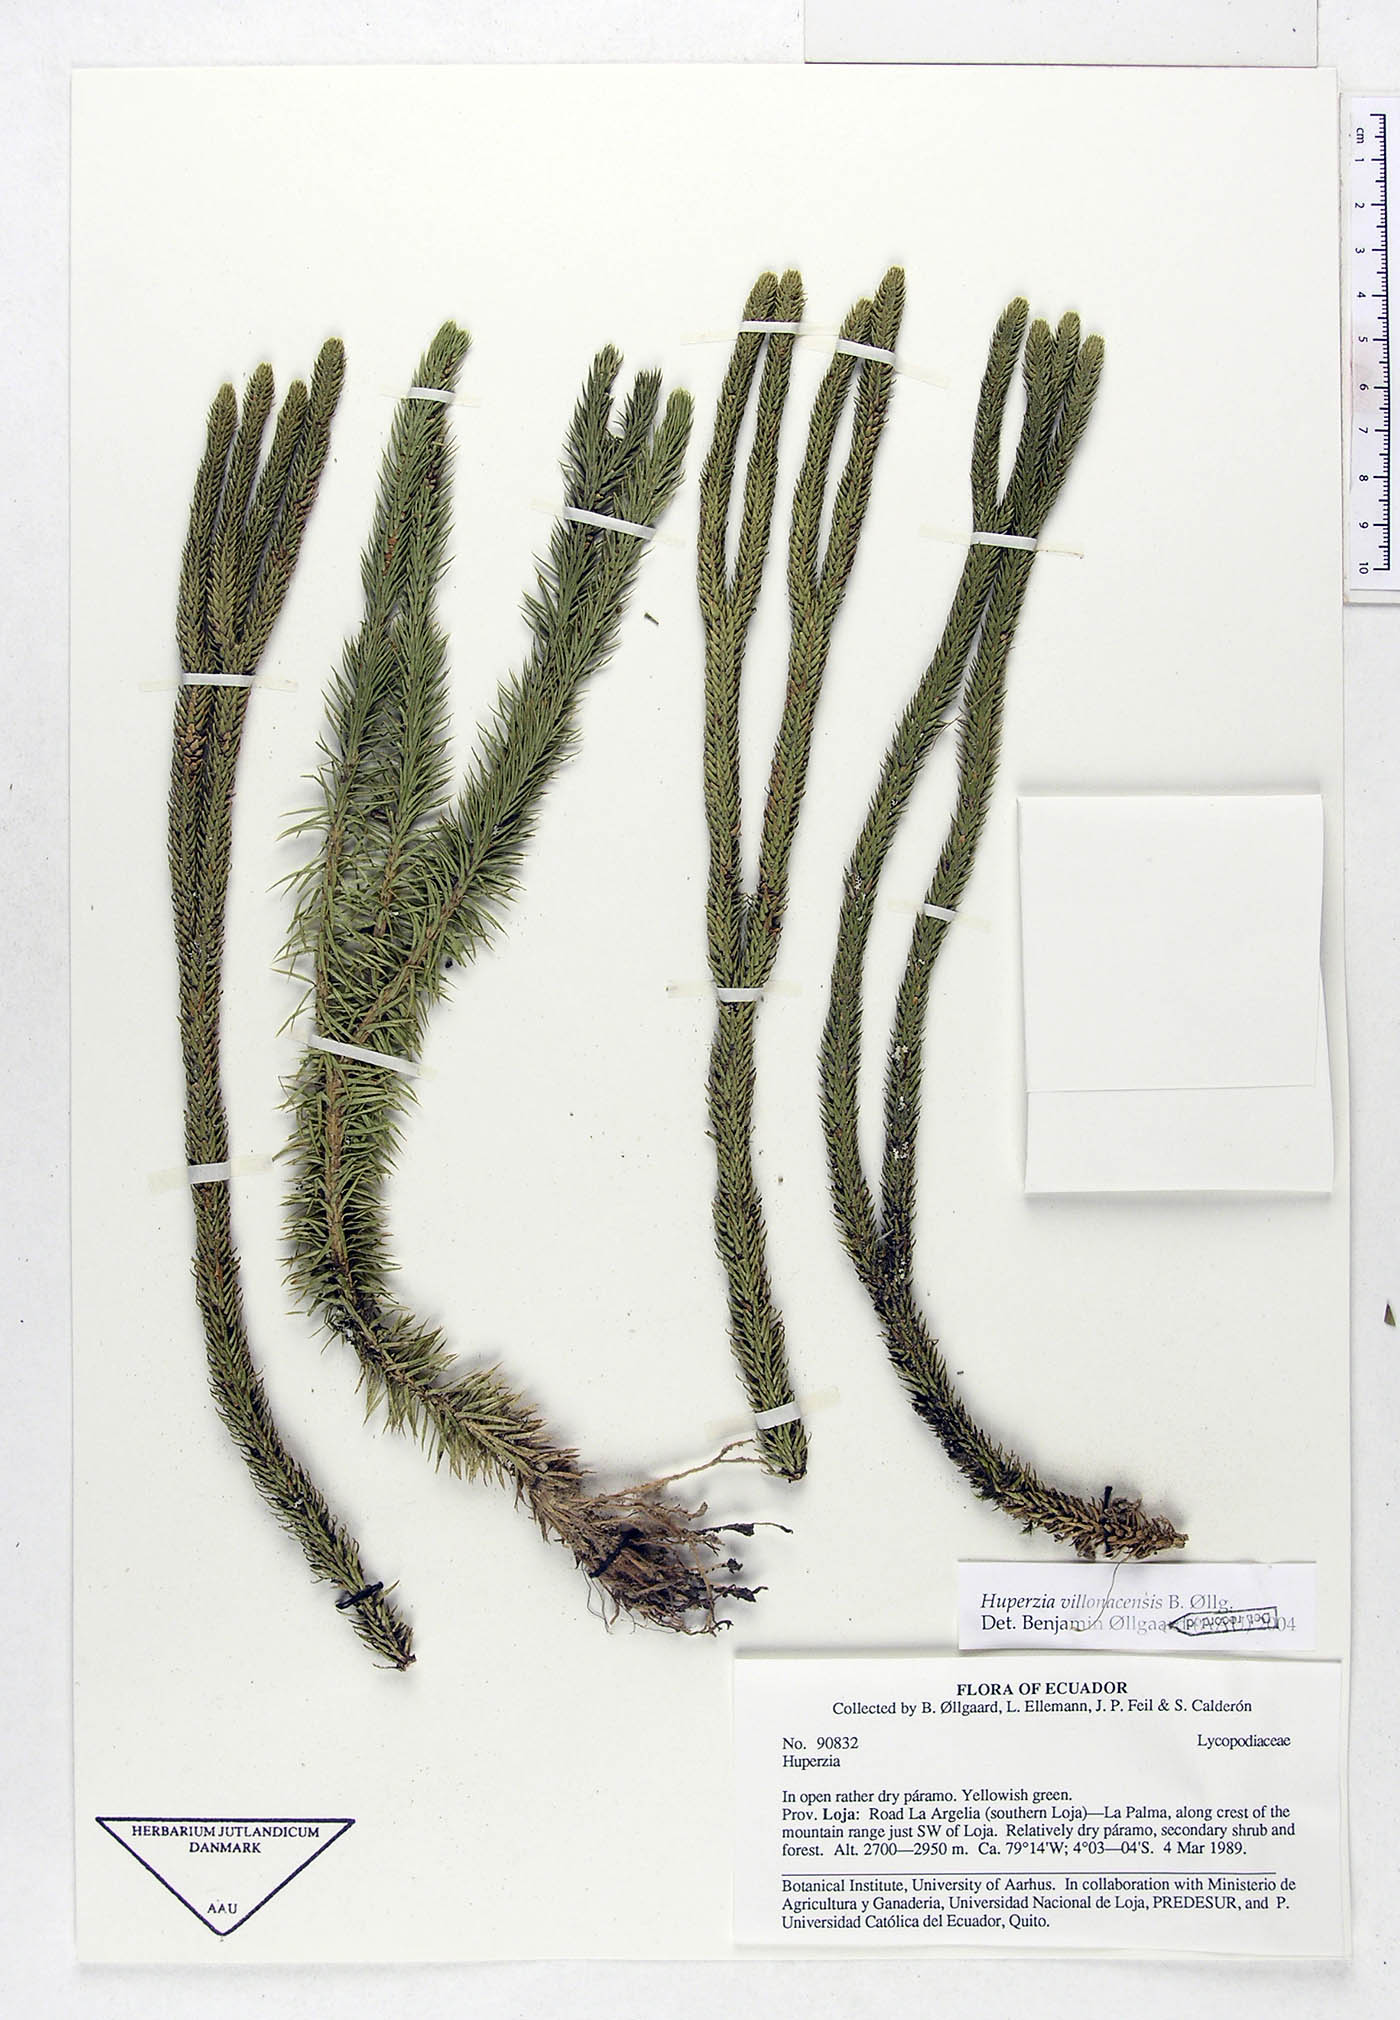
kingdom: Plantae
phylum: Tracheophyta
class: Lycopodiopsida
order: Lycopodiales
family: Lycopodiaceae
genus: Phlegmariurus
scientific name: Phlegmariurus villonacensis
